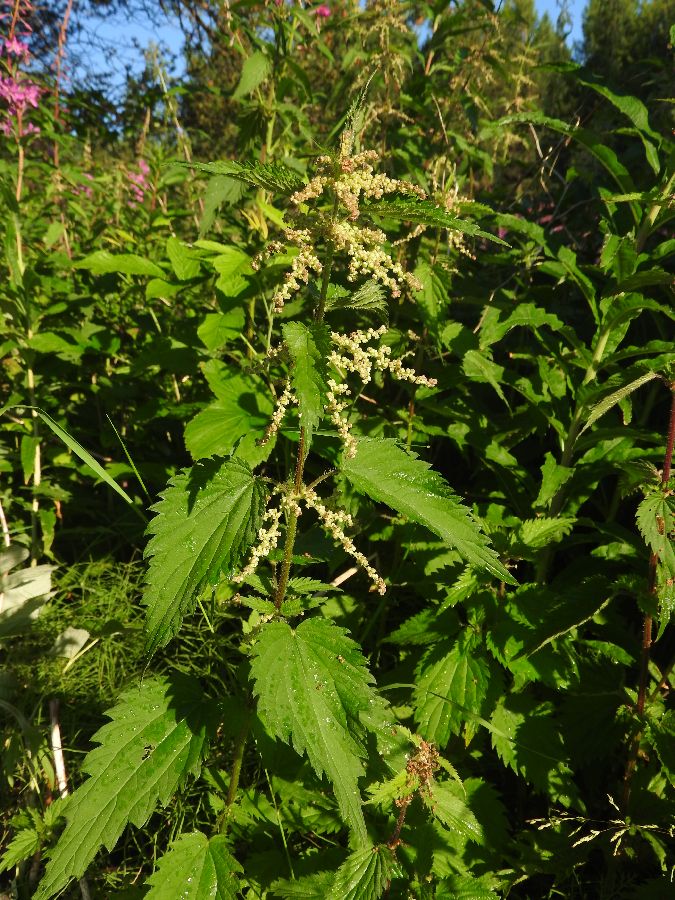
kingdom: Plantae
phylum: Tracheophyta
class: Magnoliopsida
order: Rosales
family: Urticaceae
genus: Urtica
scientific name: Urtica dioica
